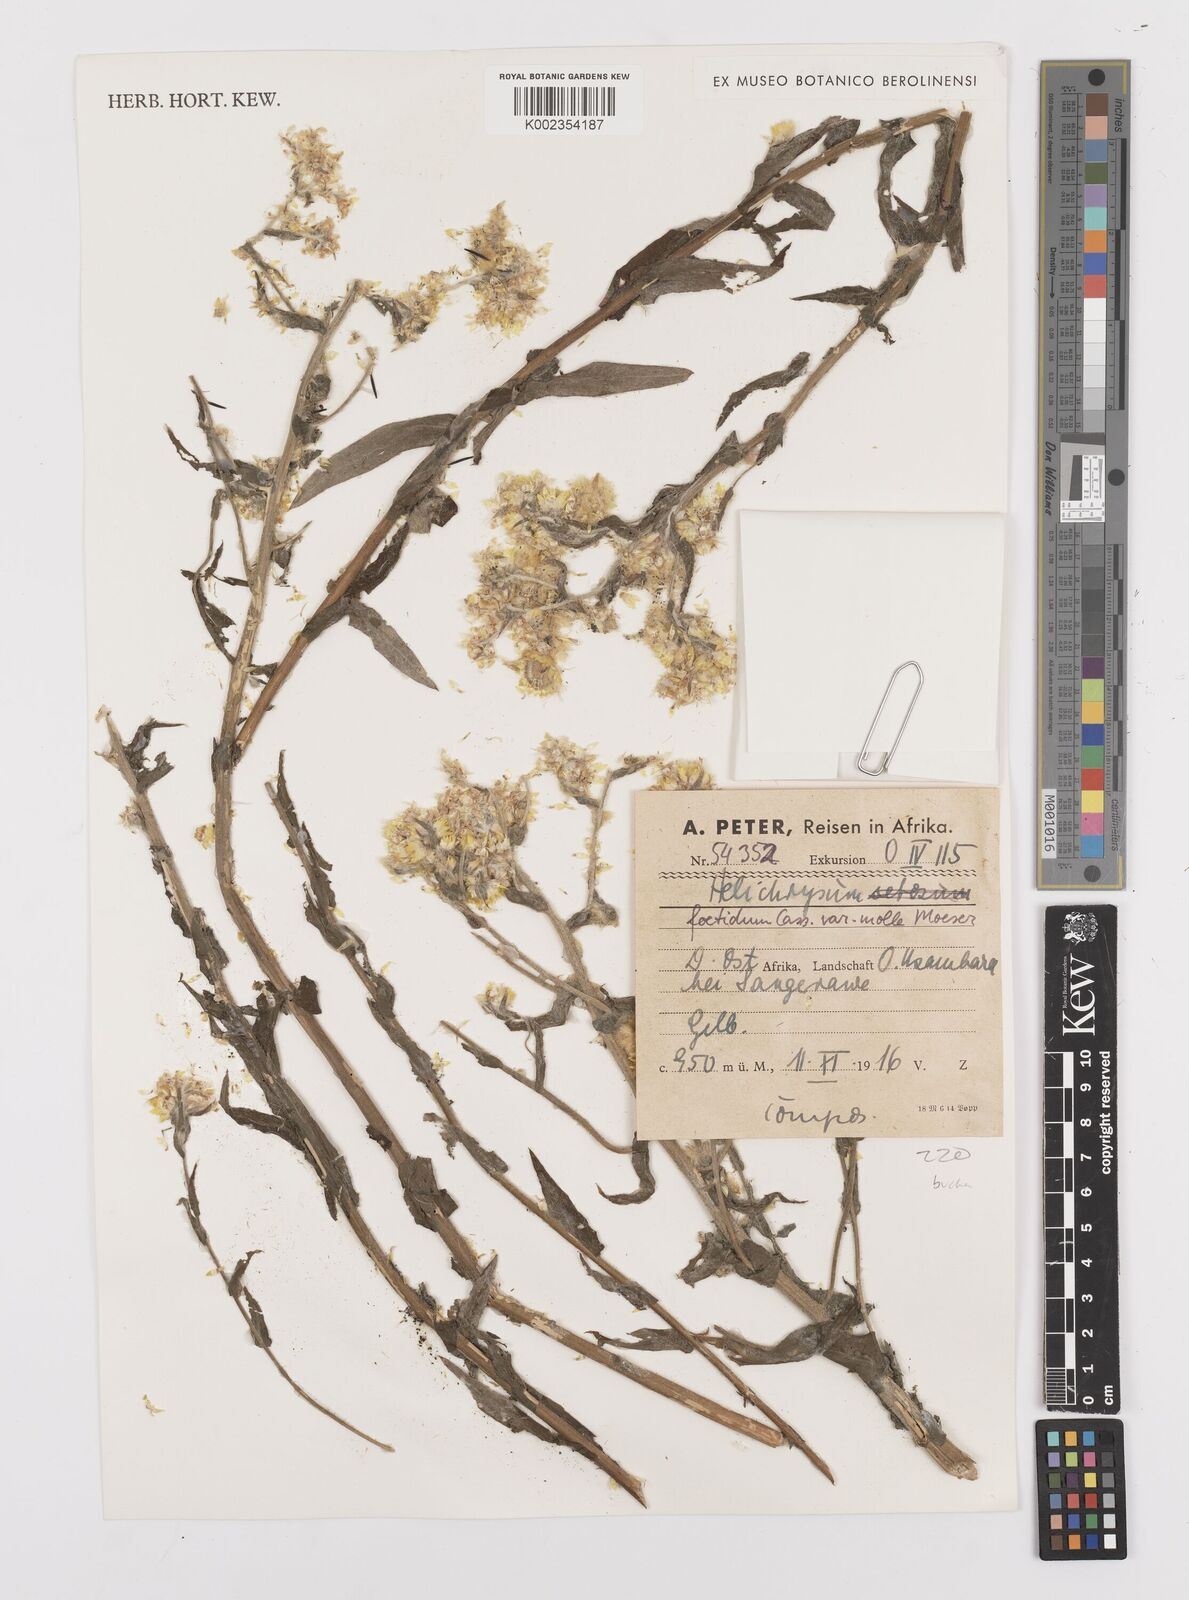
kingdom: Plantae
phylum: Tracheophyta
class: Magnoliopsida
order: Asterales
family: Asteraceae
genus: Helichrysum
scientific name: Helichrysum foetidum
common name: Stinking everlasting
